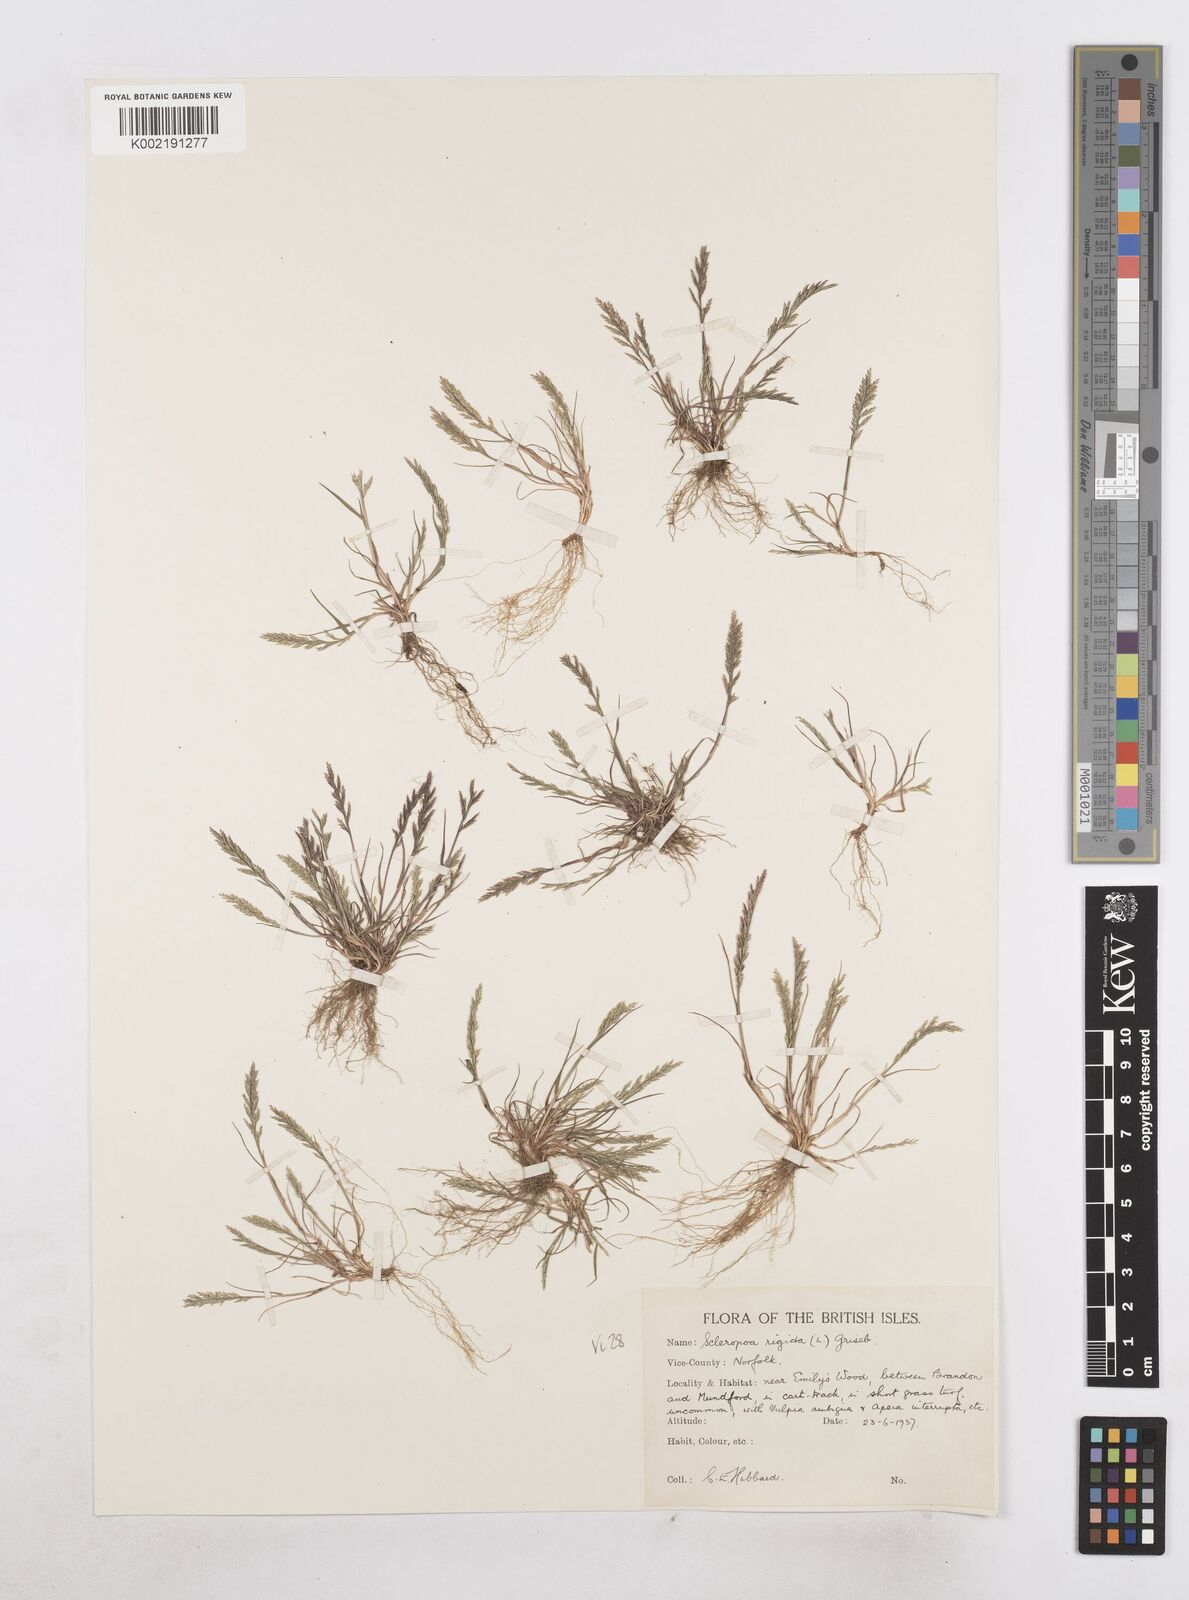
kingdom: Plantae
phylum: Tracheophyta
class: Liliopsida
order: Poales
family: Poaceae
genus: Catapodium
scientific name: Catapodium rigidum
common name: Fern-grass
